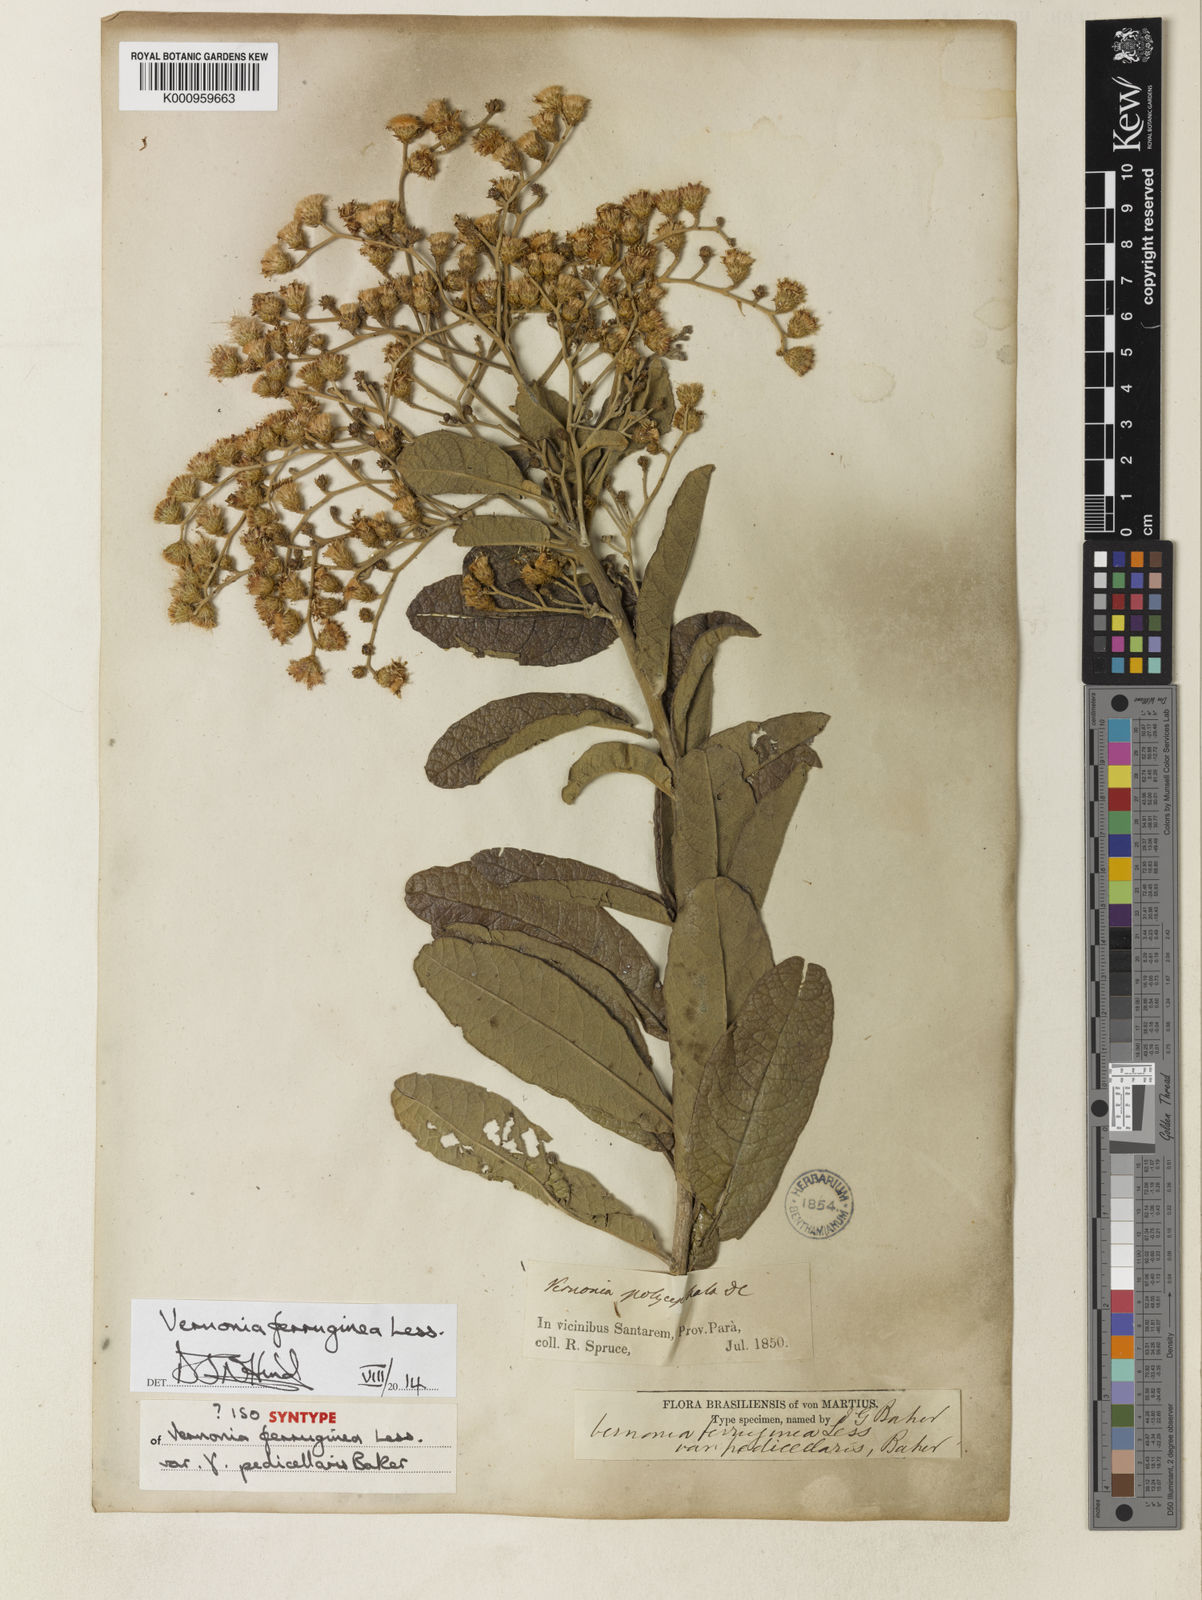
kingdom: Plantae
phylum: Tracheophyta
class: Magnoliopsida
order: Asterales
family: Asteraceae
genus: Vernonanthura
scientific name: Vernonanthura ferruginea
